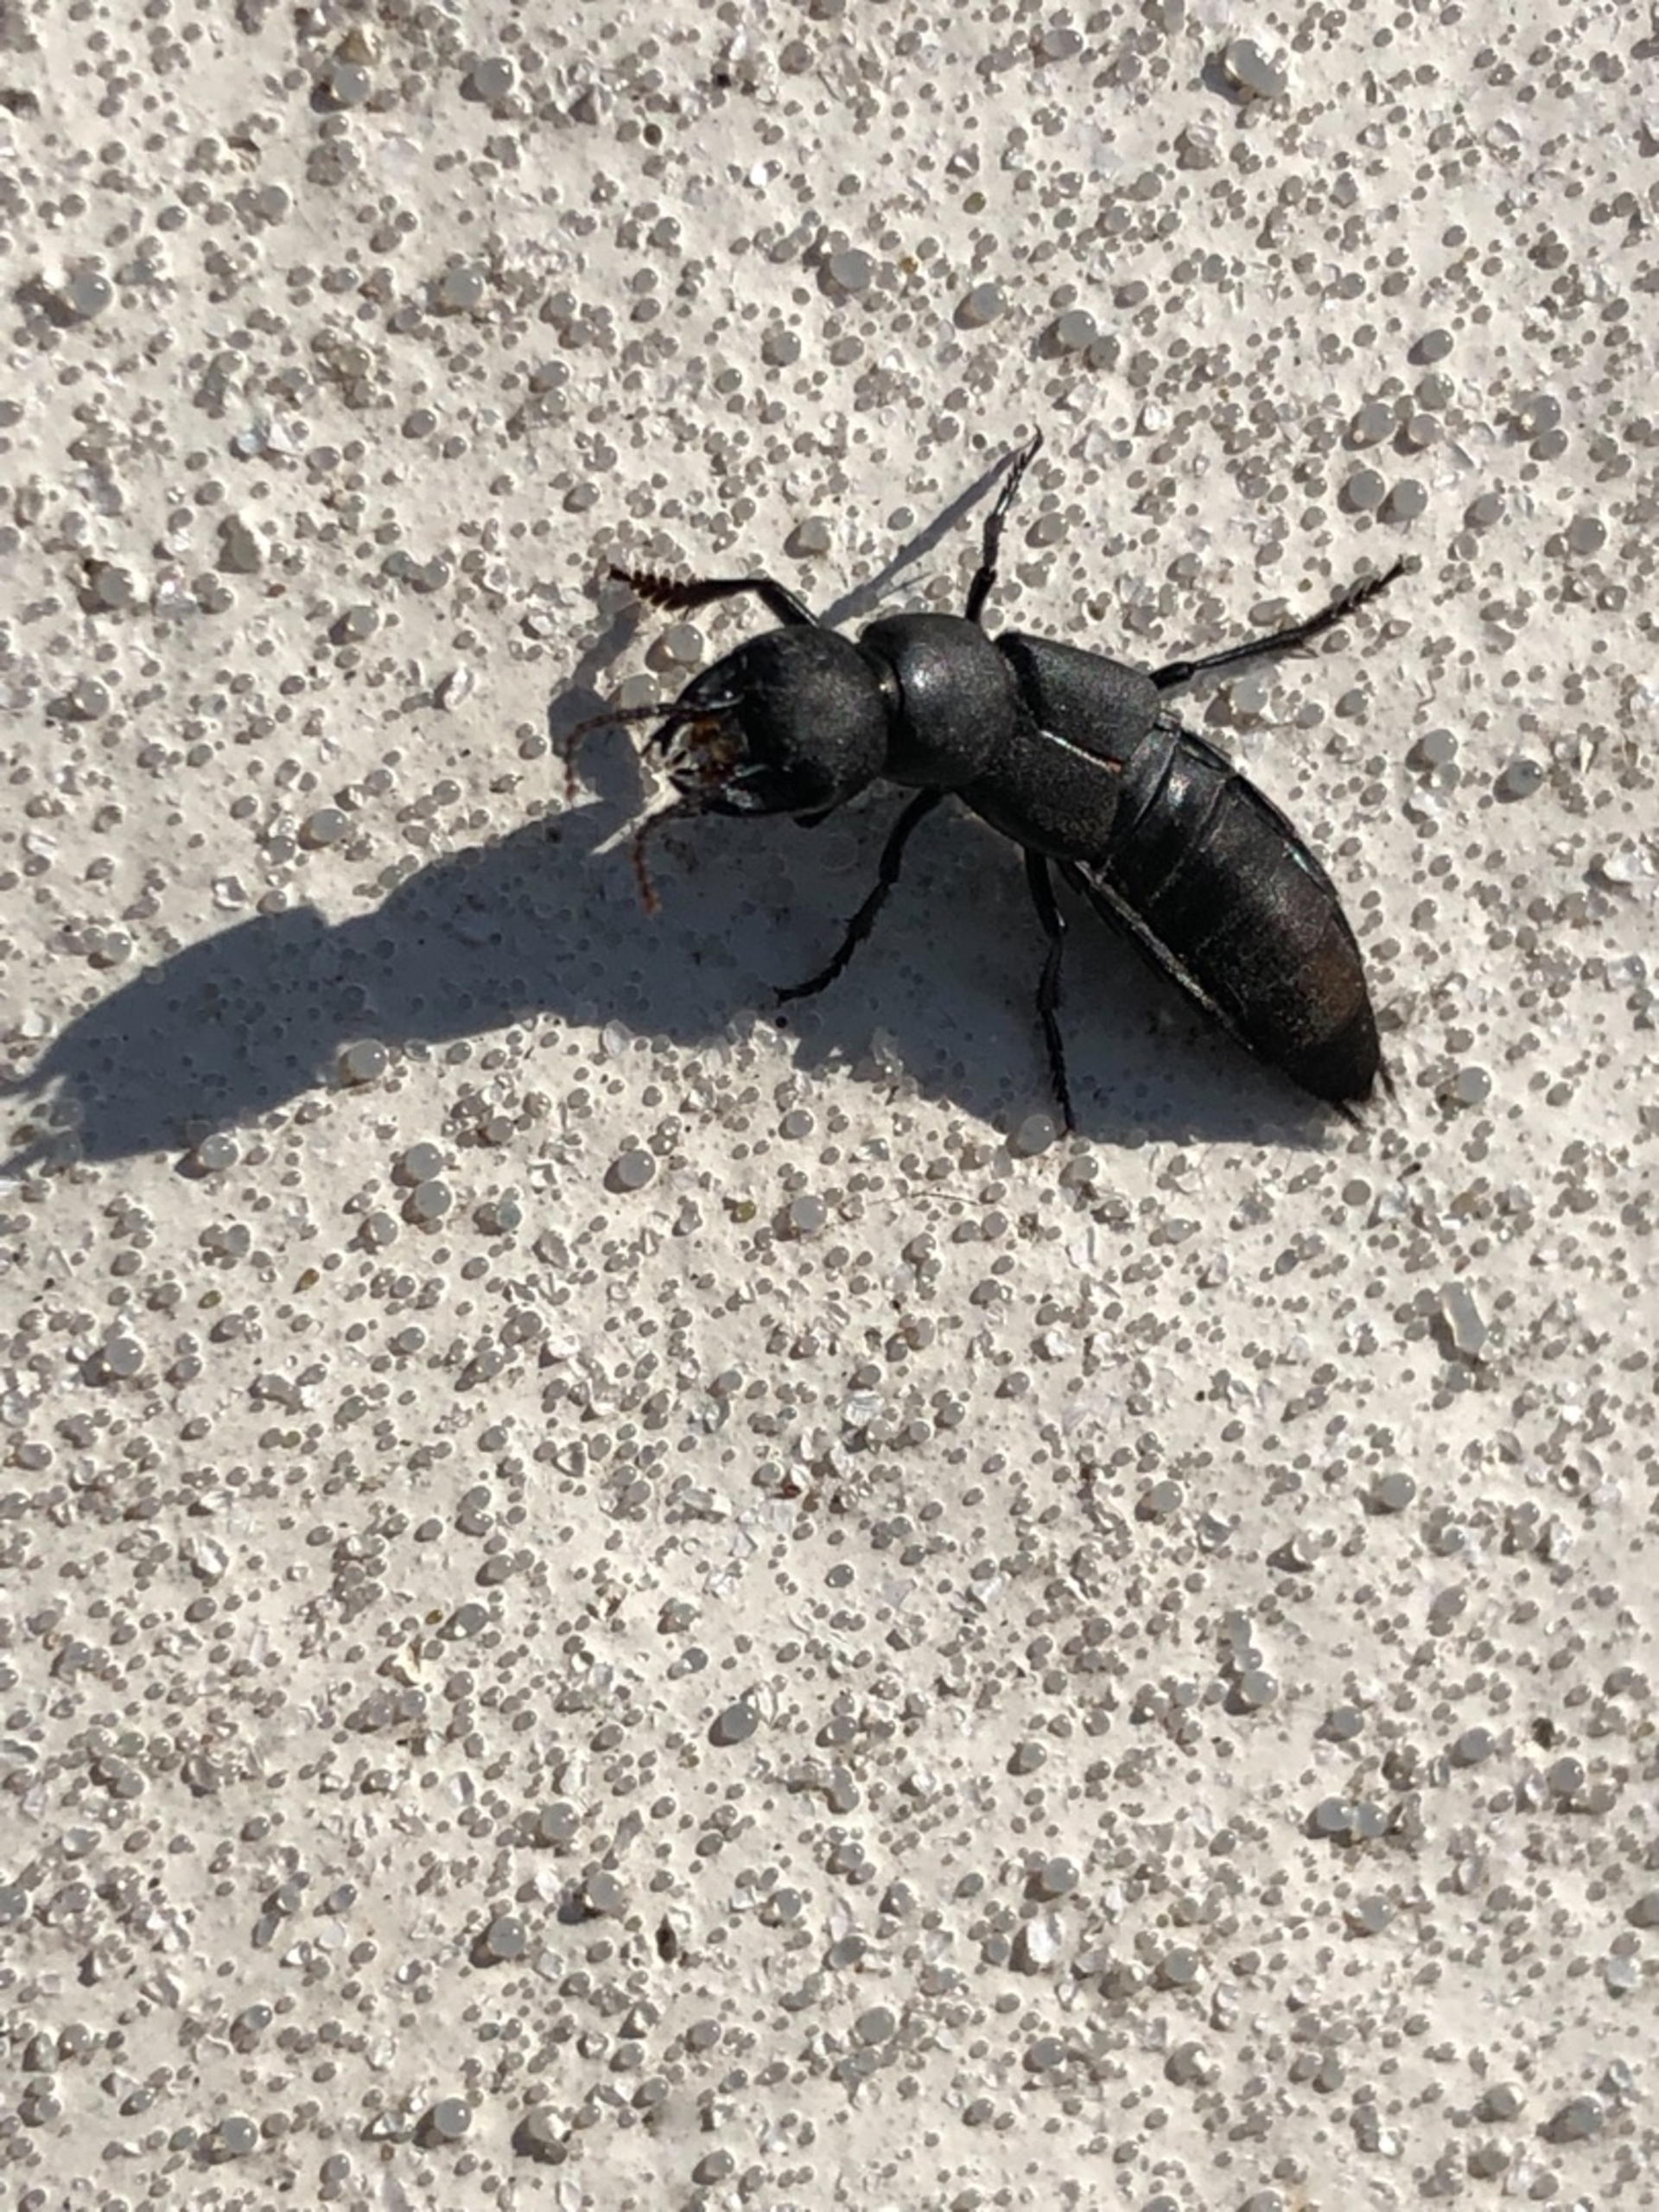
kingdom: Animalia
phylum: Arthropoda
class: Insecta
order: Coleoptera
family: Staphylinidae
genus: Ocypus
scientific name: Ocypus olens
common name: Stor rovbille
